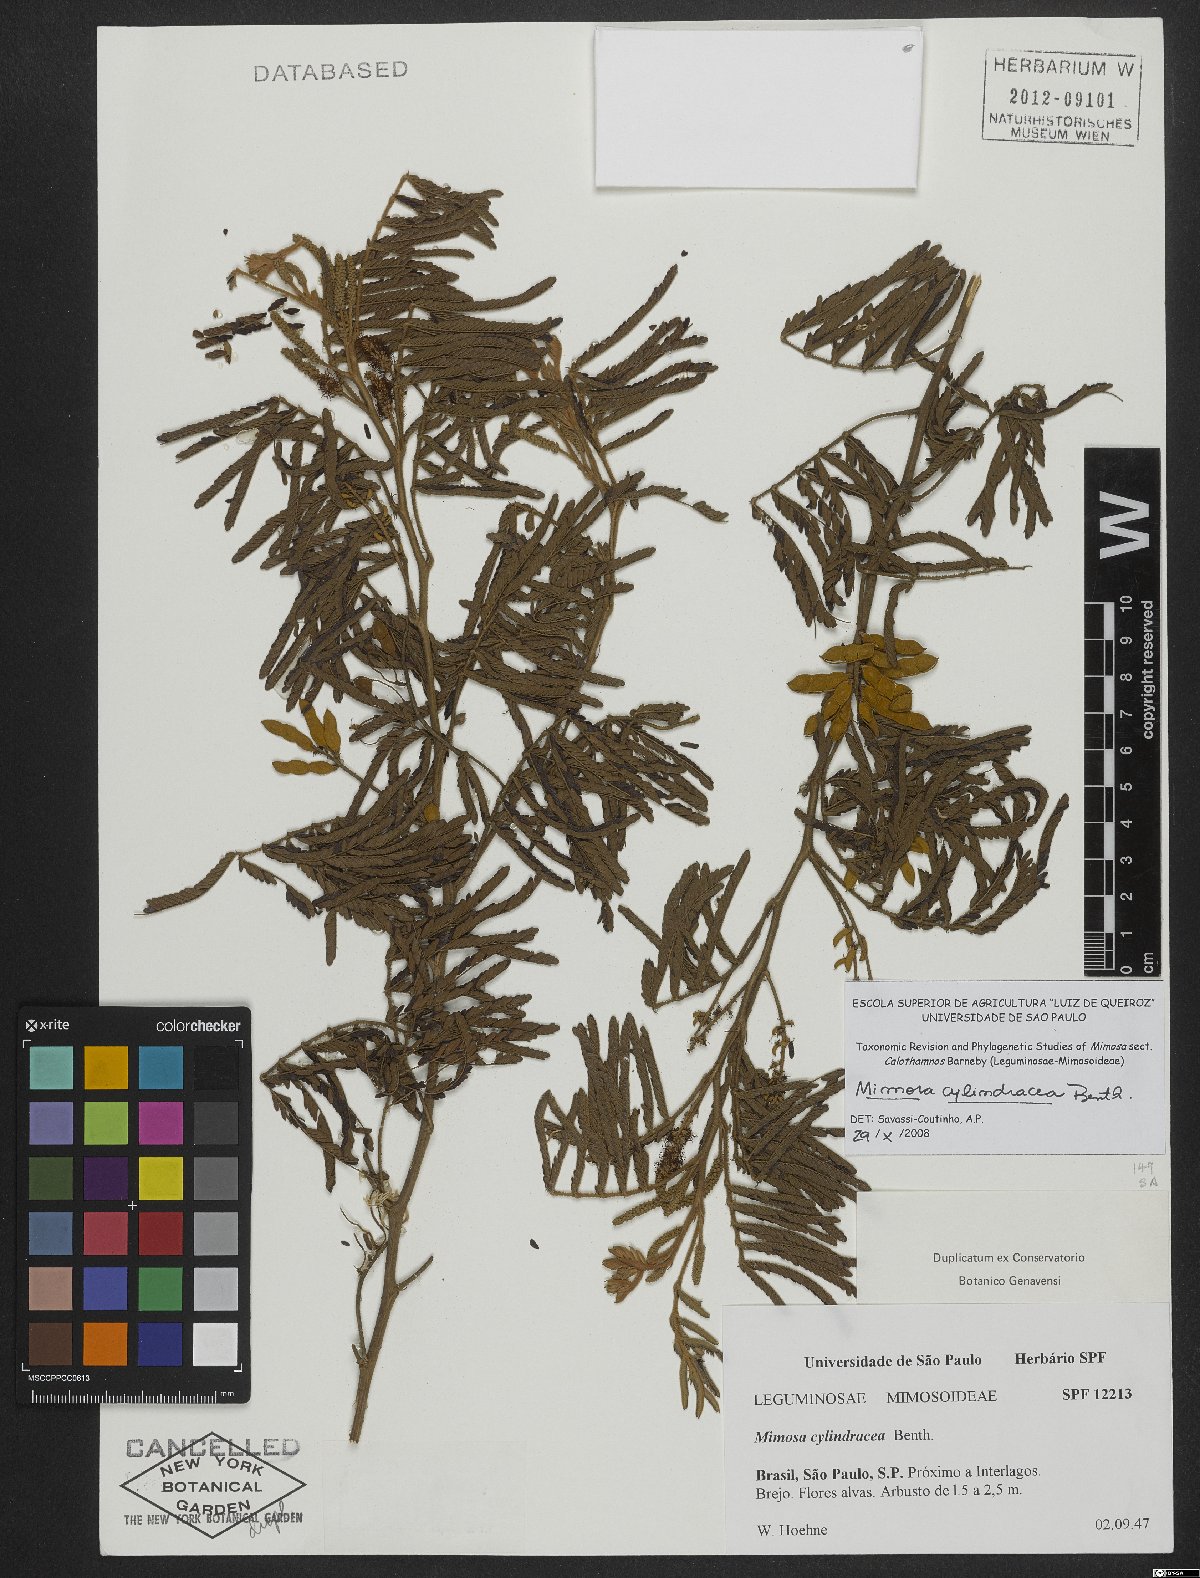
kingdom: Plantae
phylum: Tracheophyta
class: Magnoliopsida
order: Fabales
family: Fabaceae
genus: Mimosa
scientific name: Mimosa cylindracea
